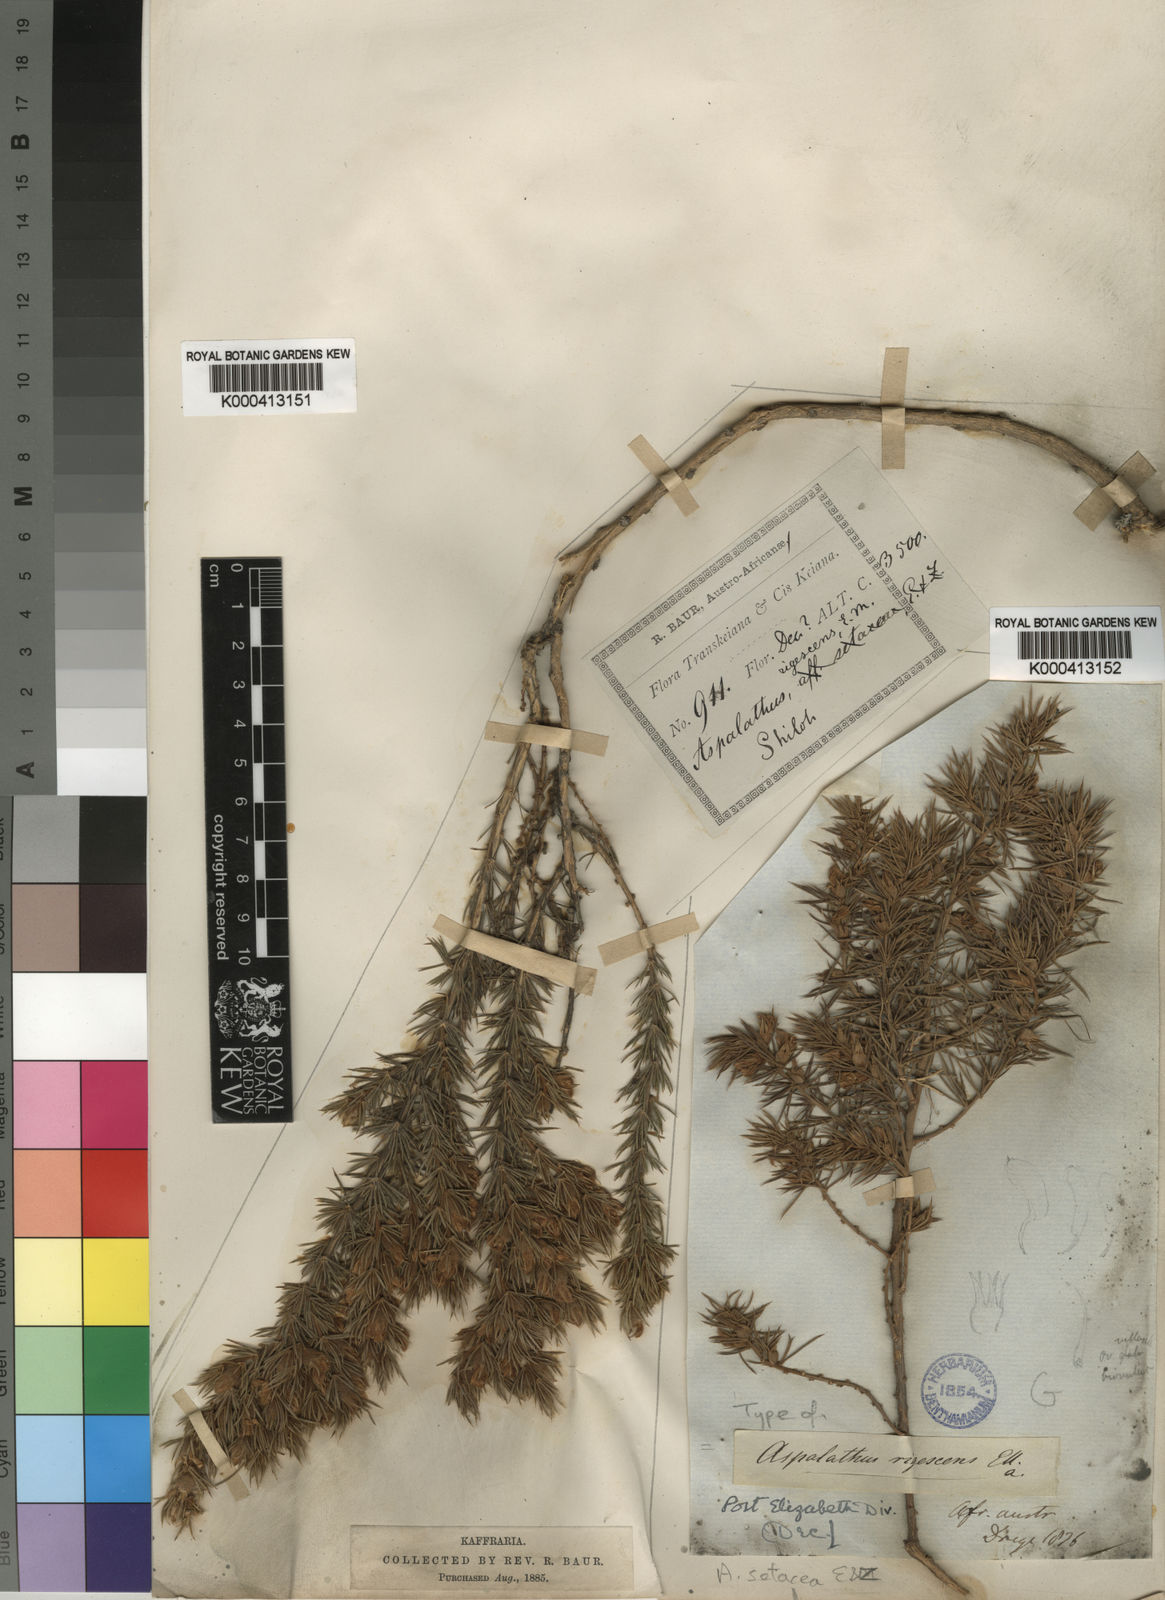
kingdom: Plantae
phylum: Tracheophyta
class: Magnoliopsida
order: Fabales
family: Fabaceae
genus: Aspalathus
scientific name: Aspalathus setacea
